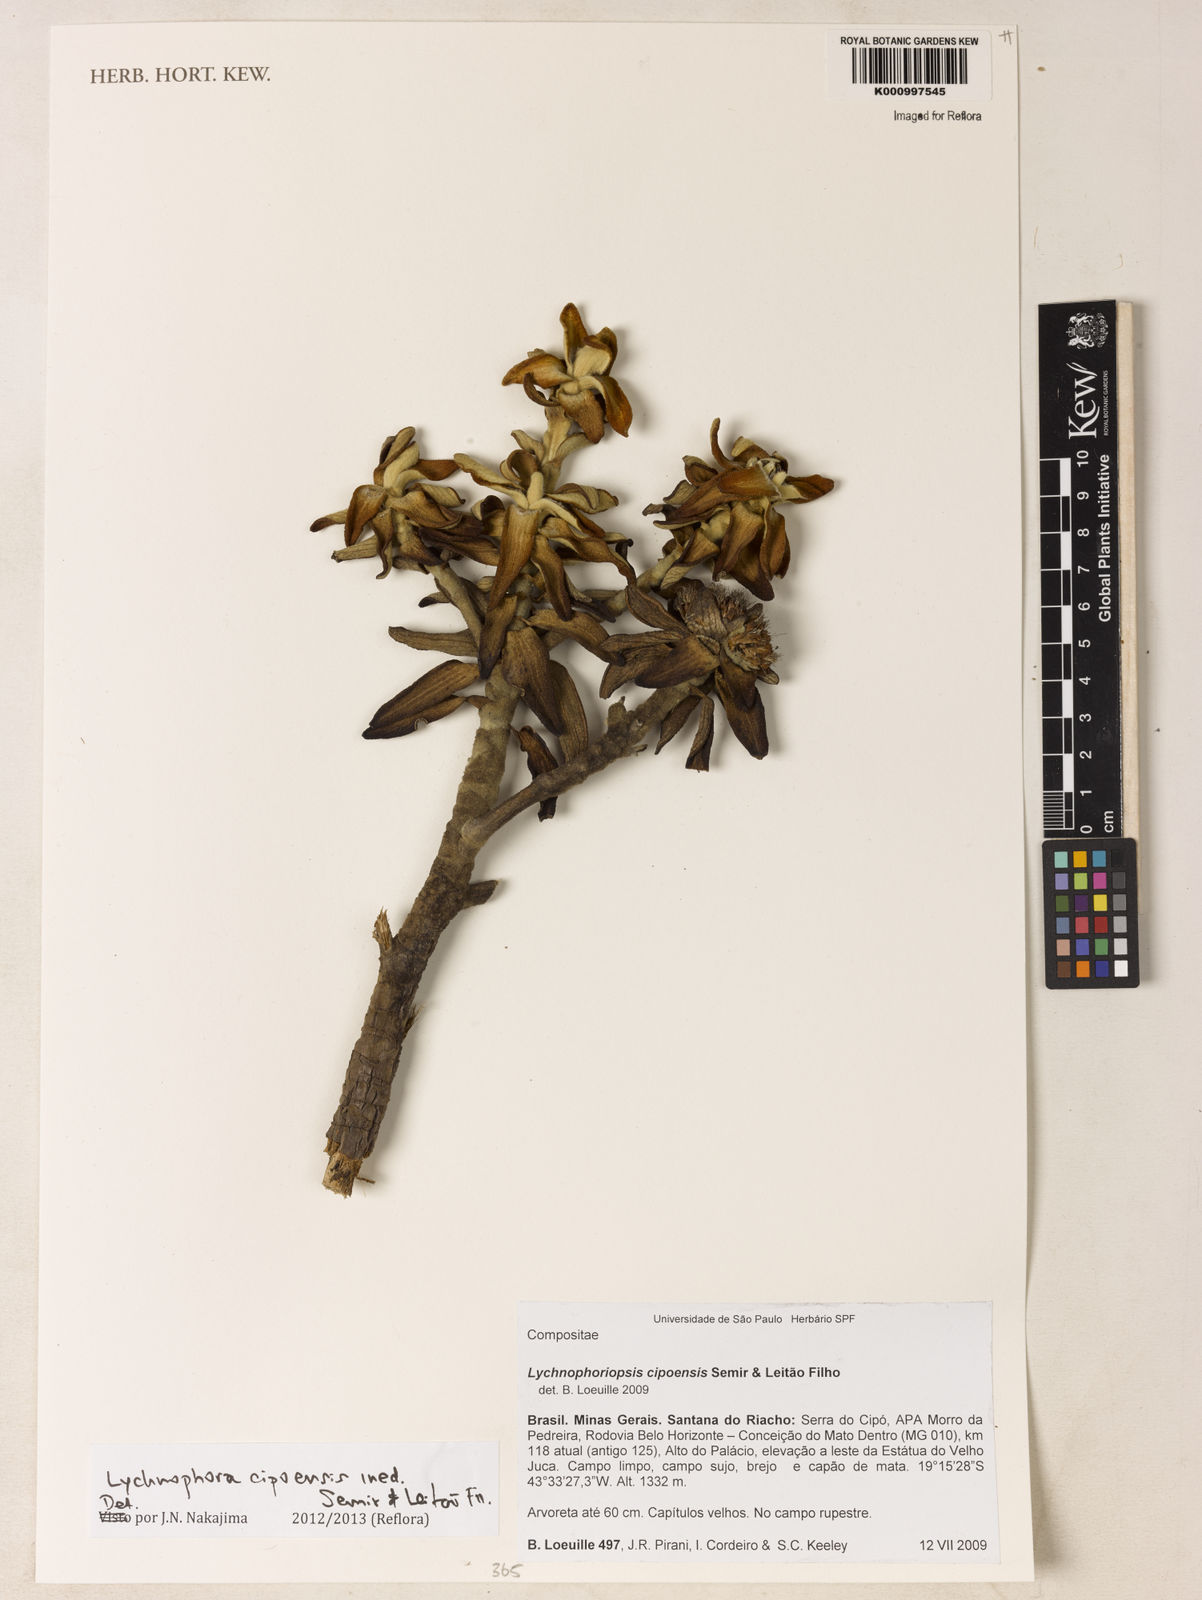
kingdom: Plantae
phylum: Tracheophyta
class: Magnoliopsida
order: Asterales
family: Asteraceae
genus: Lychnophora
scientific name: Lychnophora
